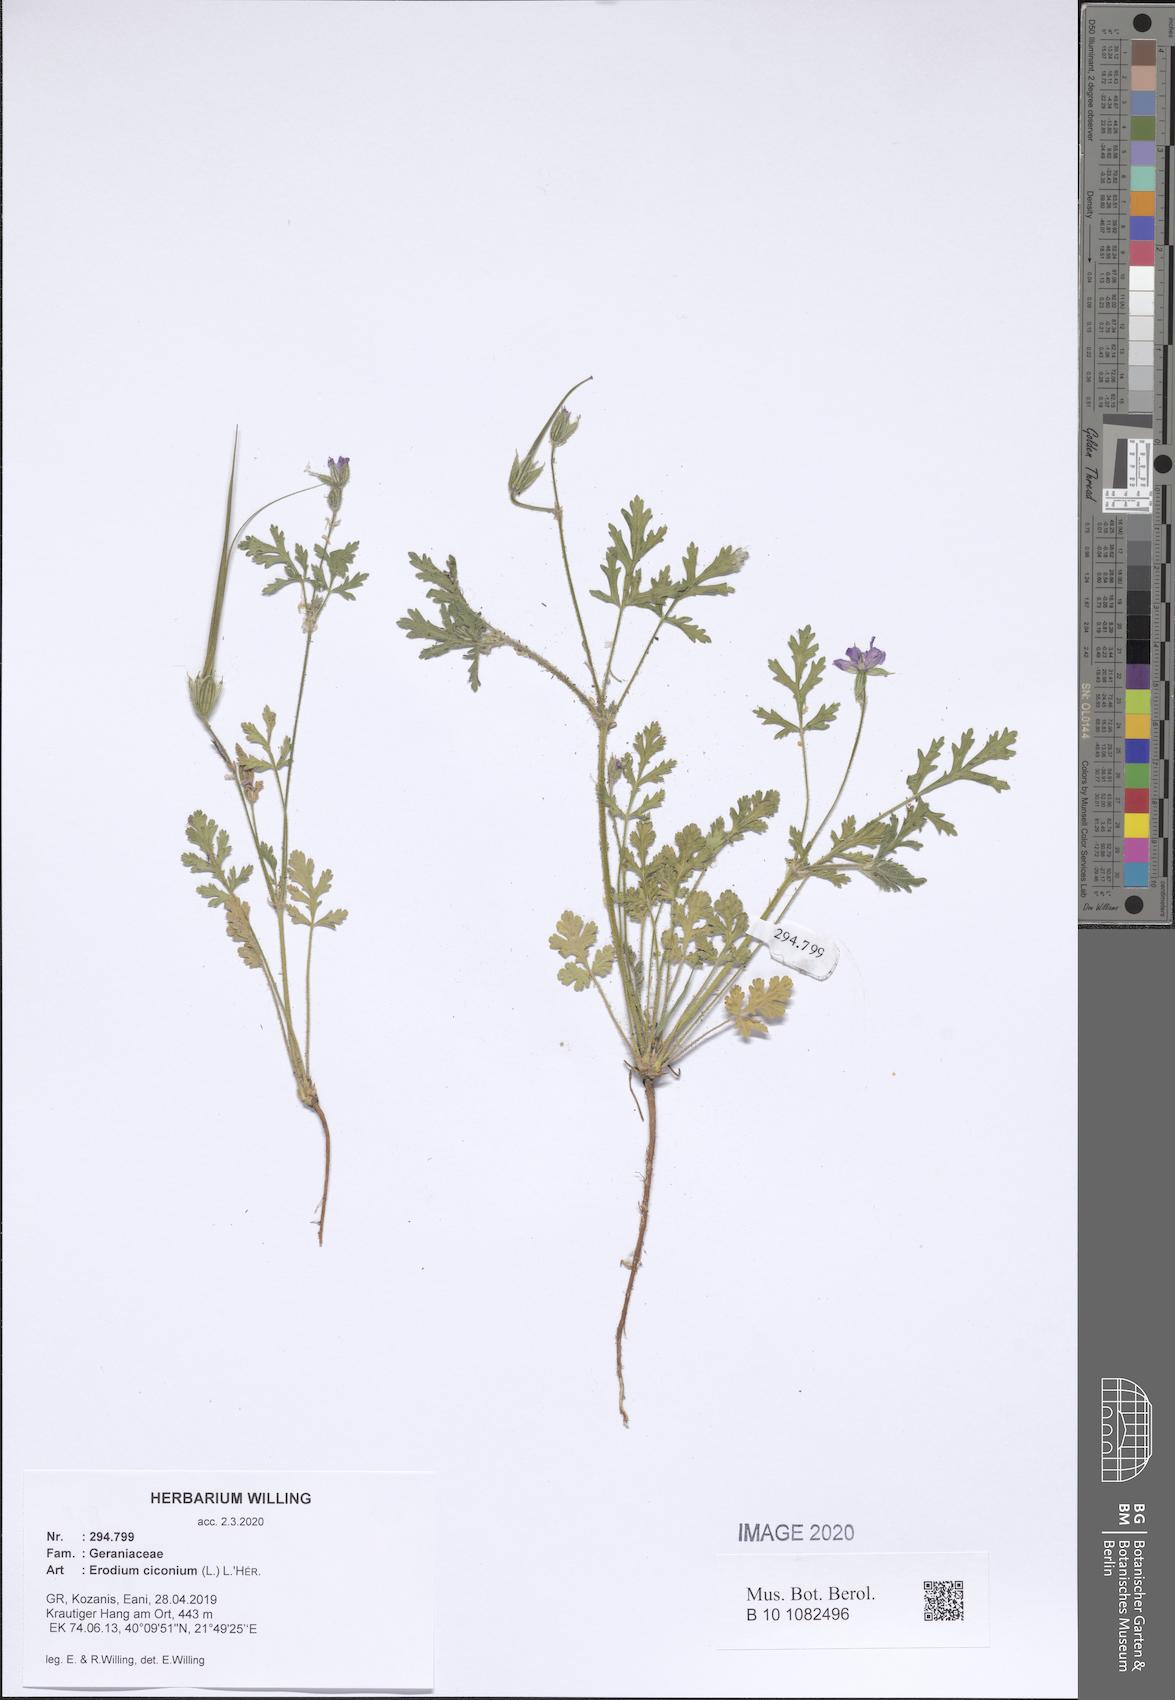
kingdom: Plantae
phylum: Tracheophyta
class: Magnoliopsida
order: Geraniales
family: Geraniaceae
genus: Erodium
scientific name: Erodium ciconium
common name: Common stork's bill
